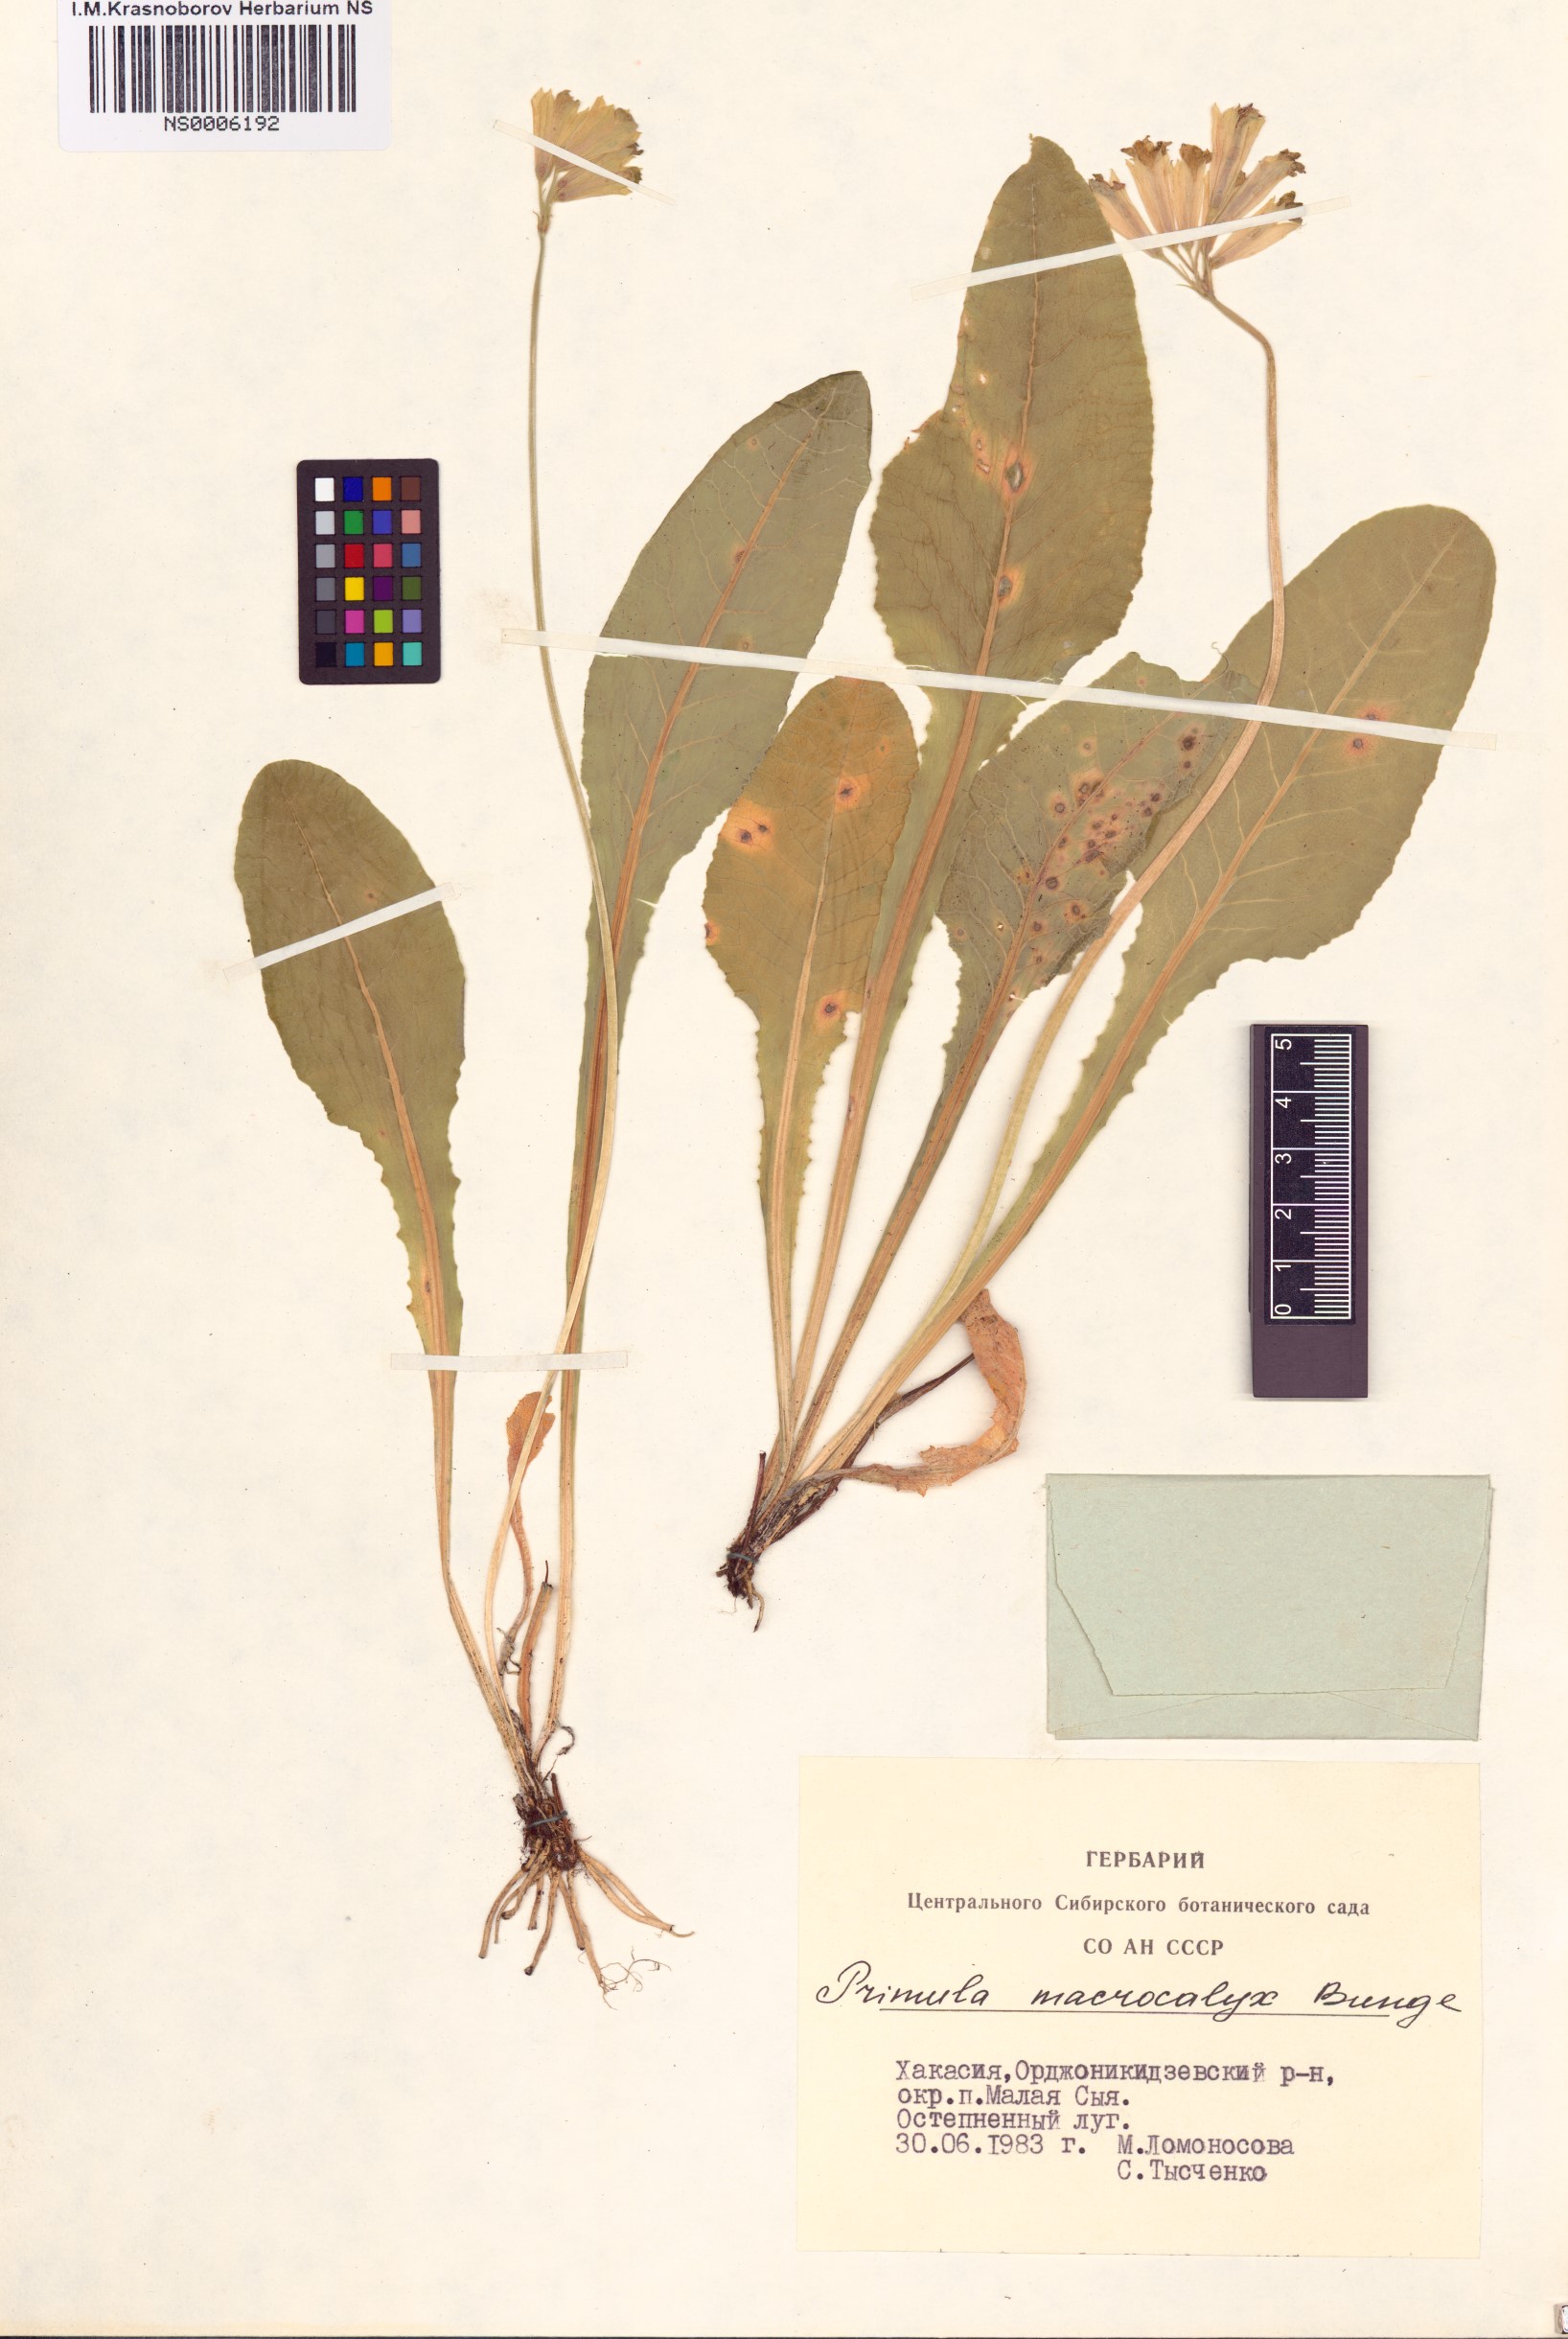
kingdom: Plantae
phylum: Tracheophyta
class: Magnoliopsida
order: Ericales
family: Primulaceae
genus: Primula
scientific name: Primula veris
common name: Cowslip
